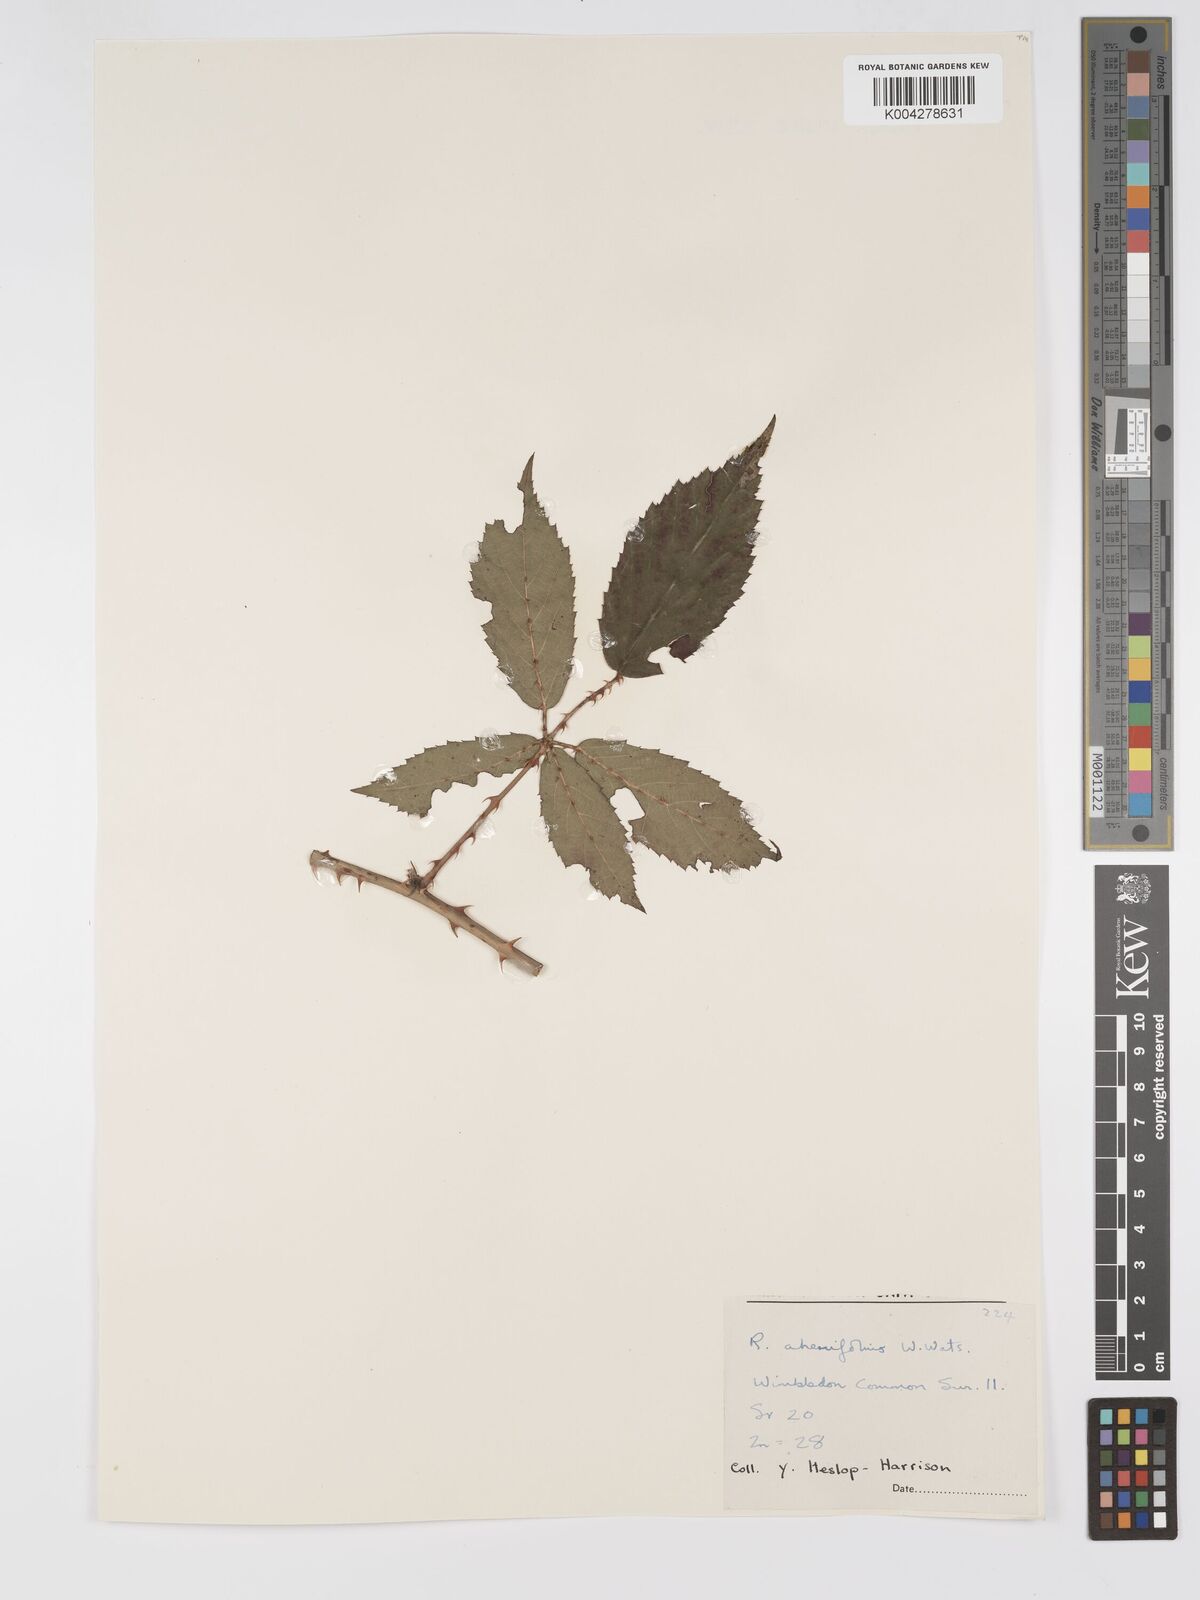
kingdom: Plantae
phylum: Tracheophyta
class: Magnoliopsida
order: Rosales
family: Rosaceae
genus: Rubus
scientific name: Rubus ahenifolius
